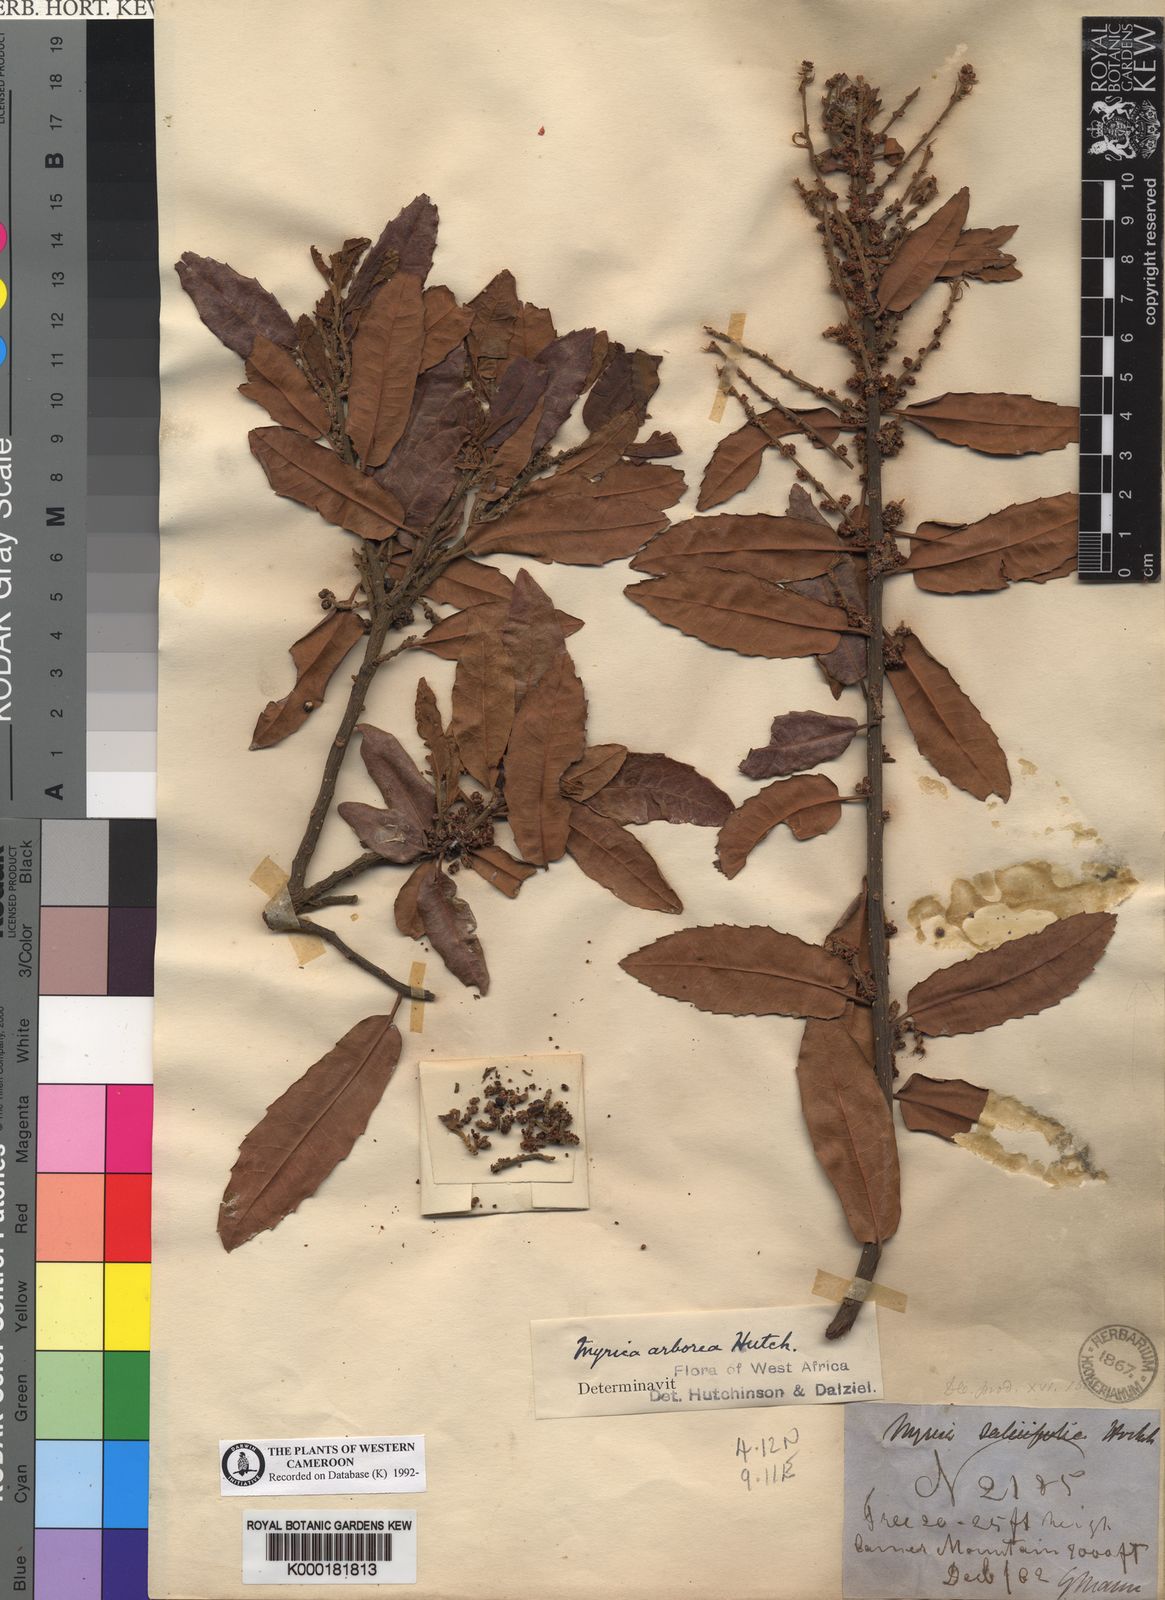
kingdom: Plantae
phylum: Tracheophyta
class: Magnoliopsida
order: Fagales
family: Myricaceae
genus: Morella
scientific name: Morella arborea
